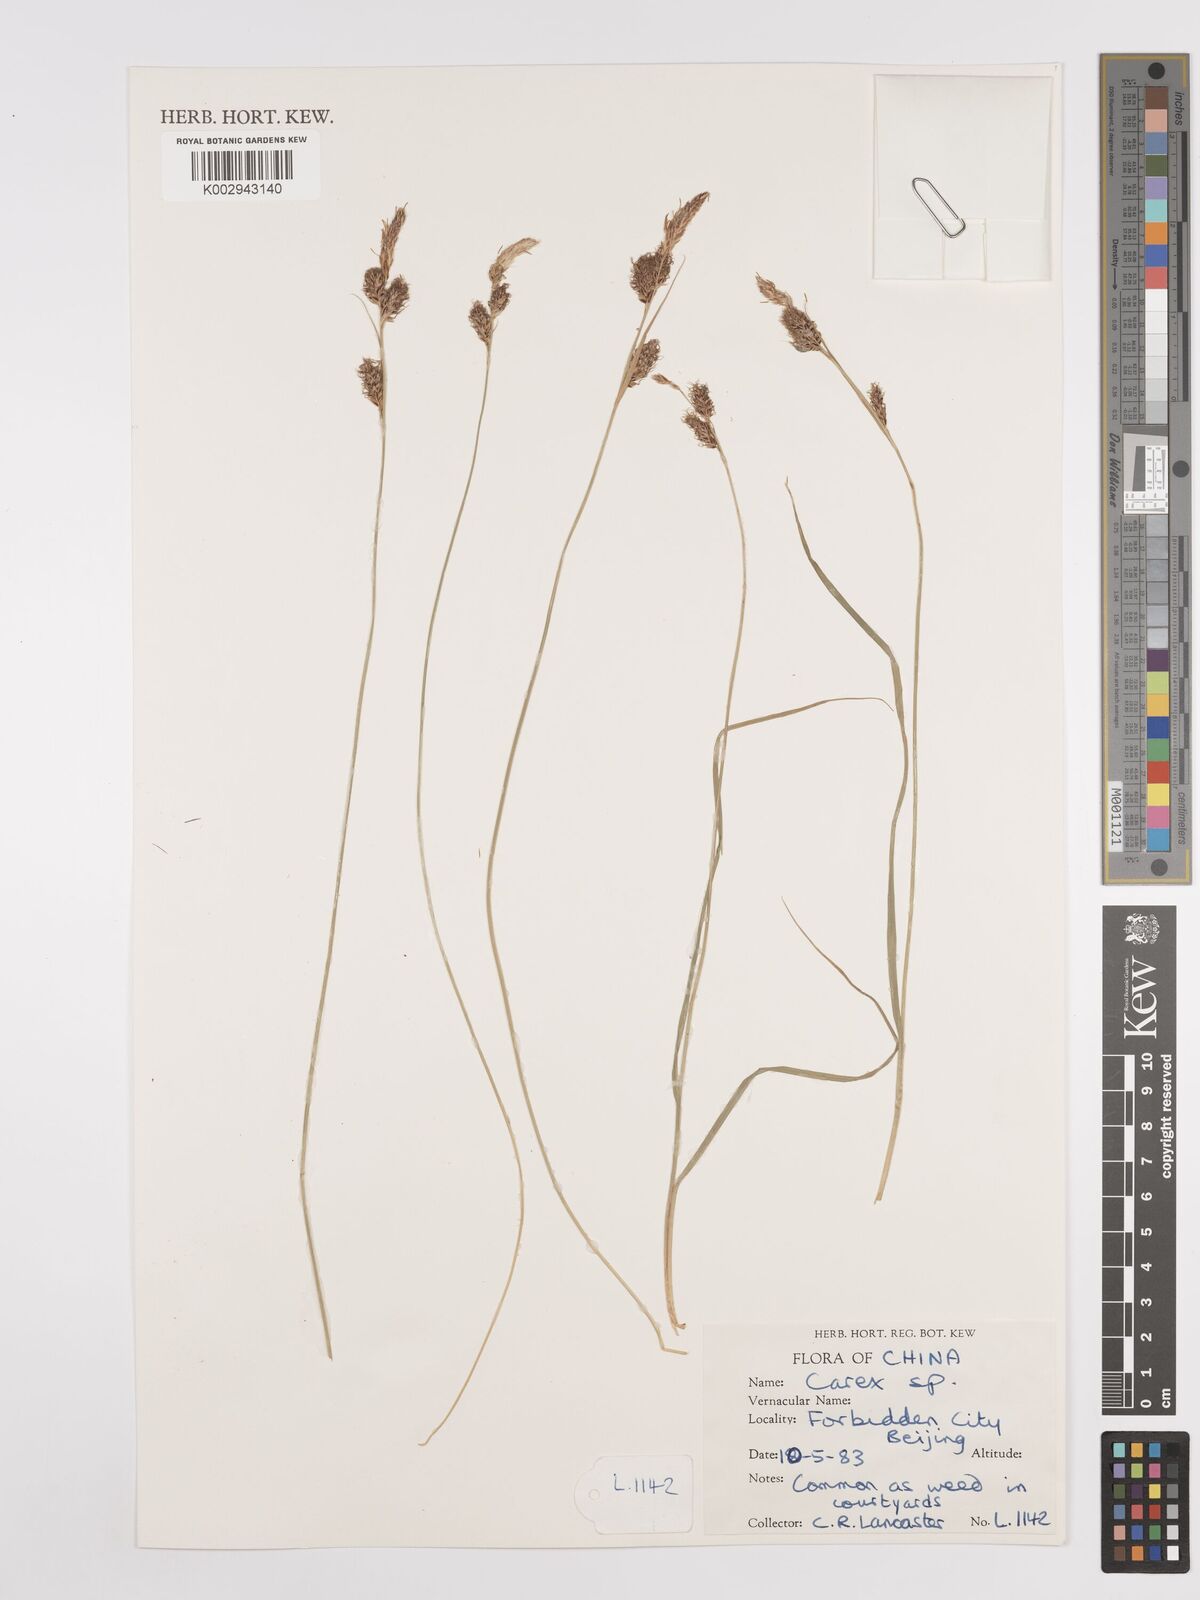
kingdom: Plantae
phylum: Tracheophyta
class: Liliopsida
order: Poales
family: Cyperaceae
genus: Carex
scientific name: Carex
